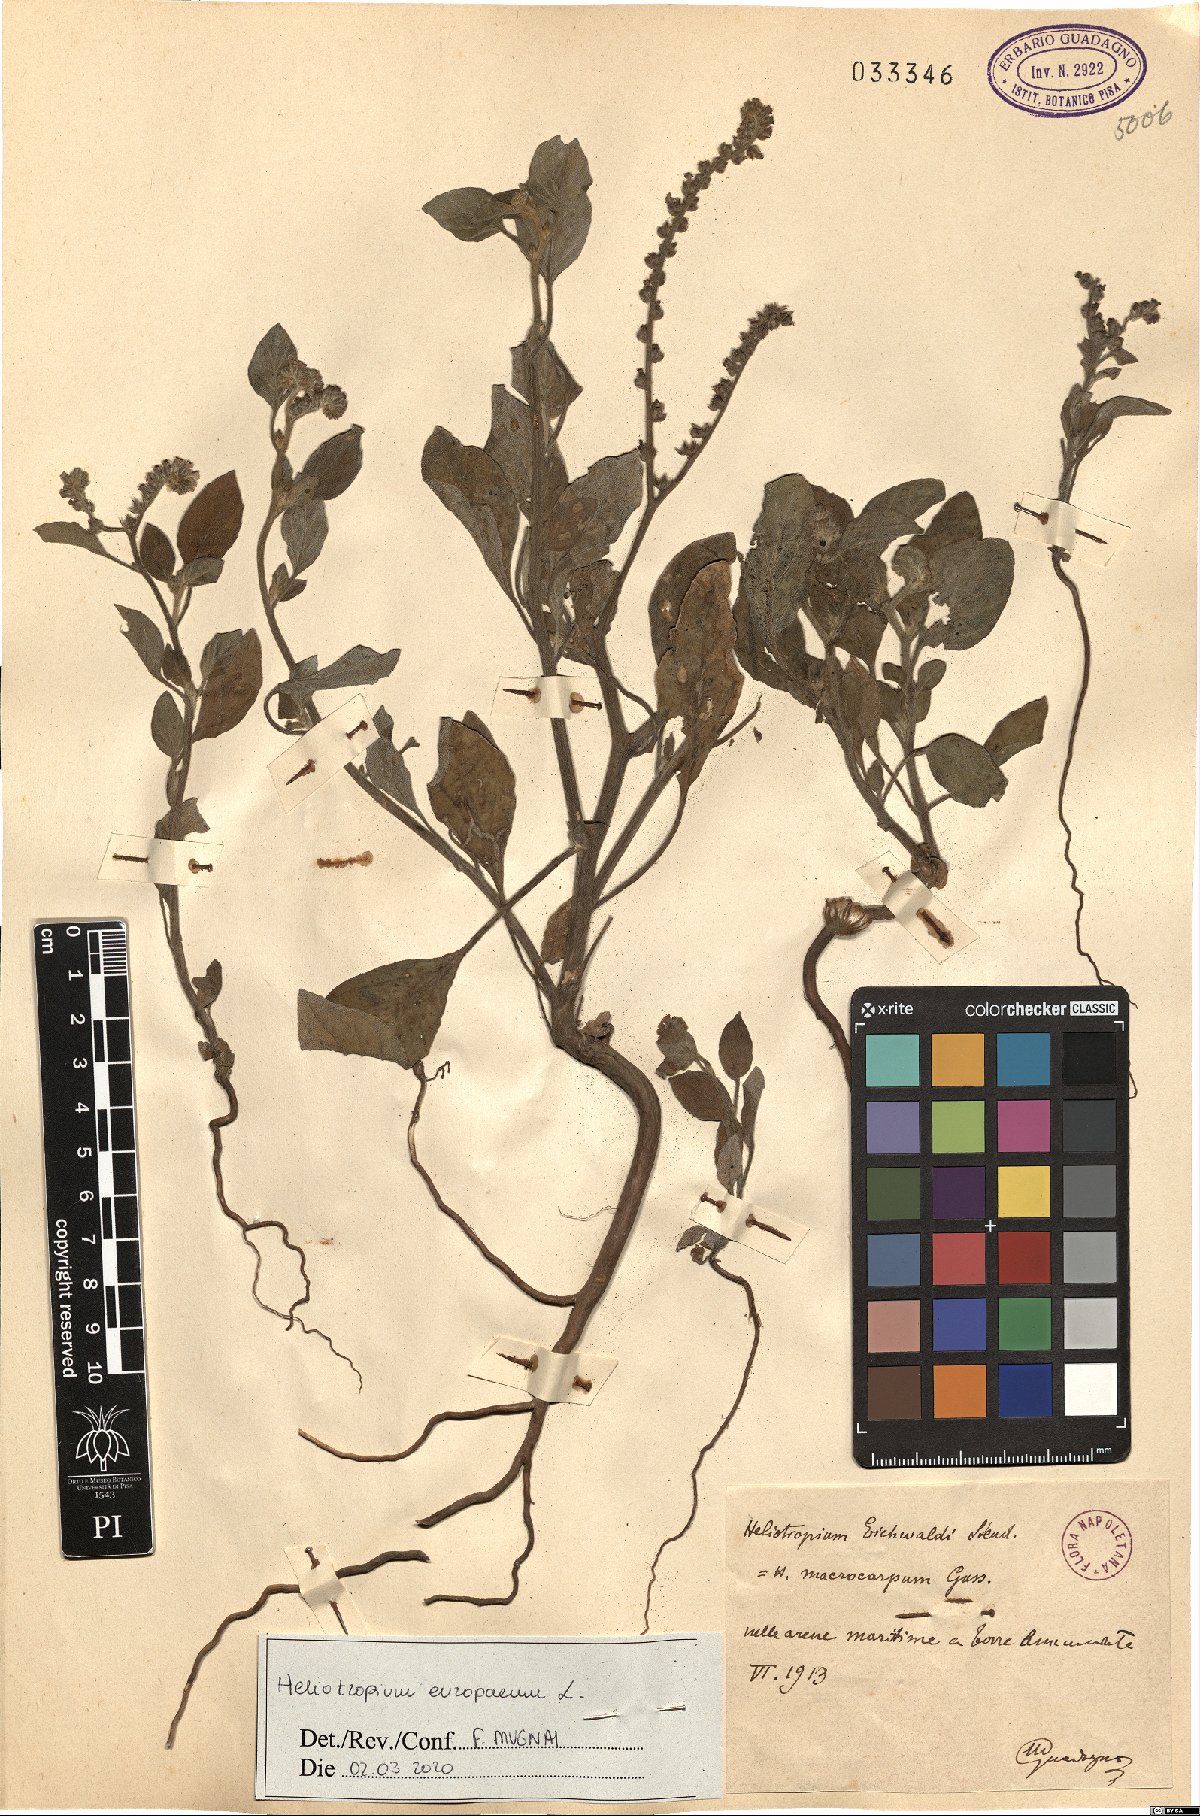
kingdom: Plantae
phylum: Tracheophyta
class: Magnoliopsida
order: Boraginales
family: Heliotropiaceae
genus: Heliotropium
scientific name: Heliotropium europaeum
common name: European heliotrope
